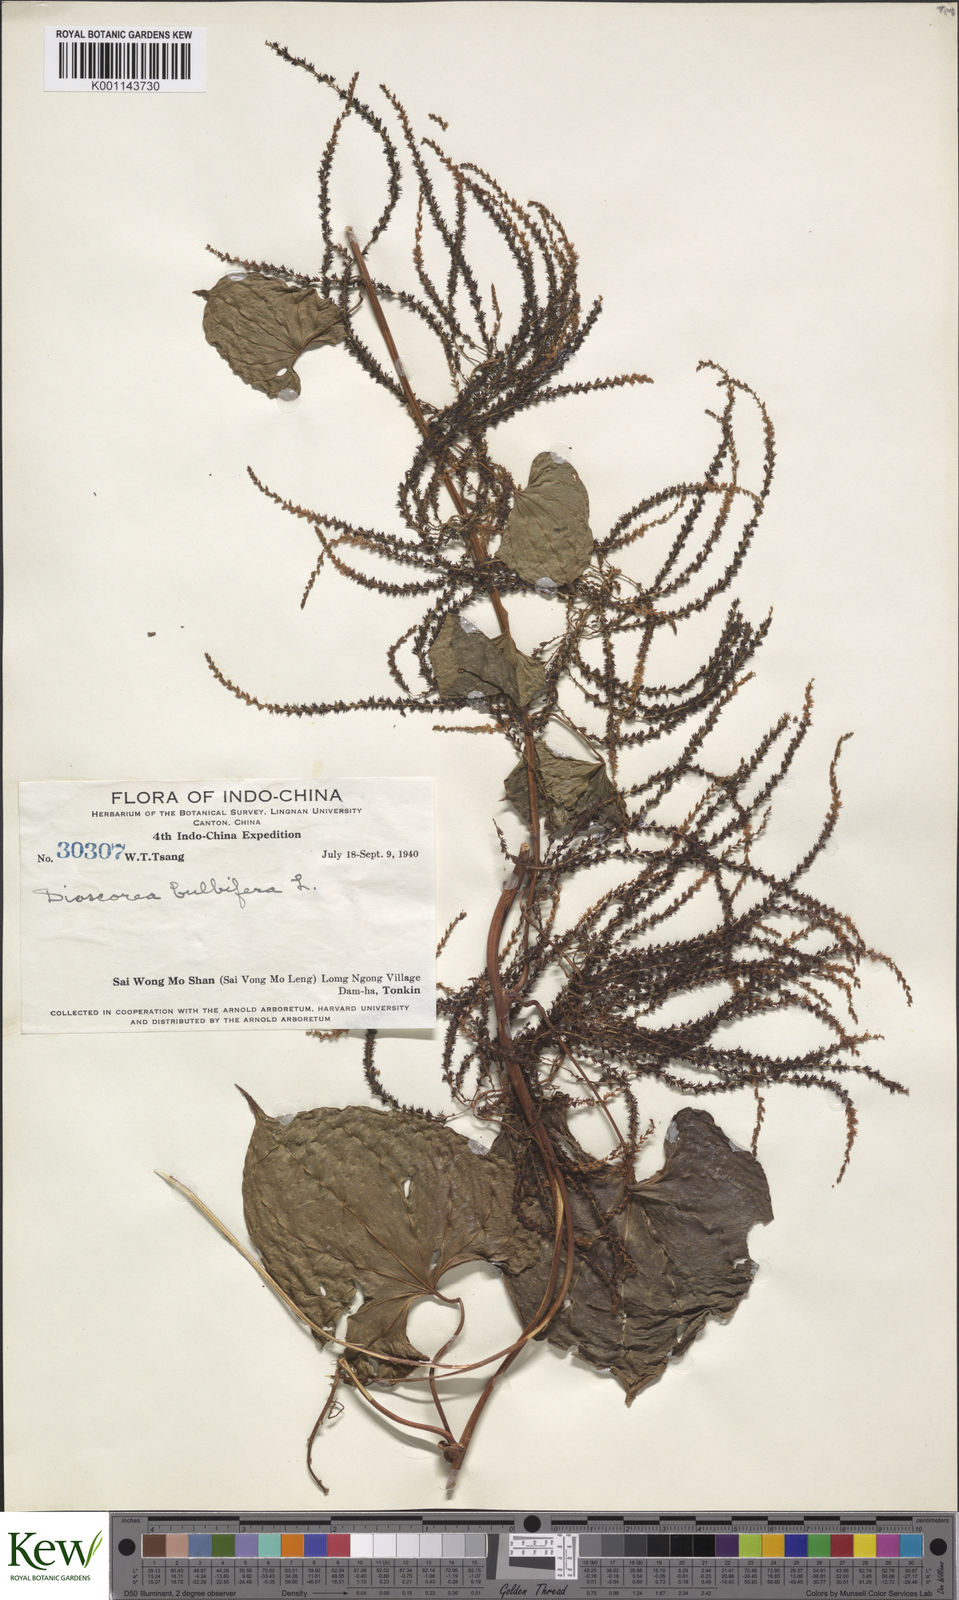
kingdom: Plantae
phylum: Tracheophyta
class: Liliopsida
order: Dioscoreales
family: Dioscoreaceae
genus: Dioscorea
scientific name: Dioscorea bulbifera
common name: Air yam
